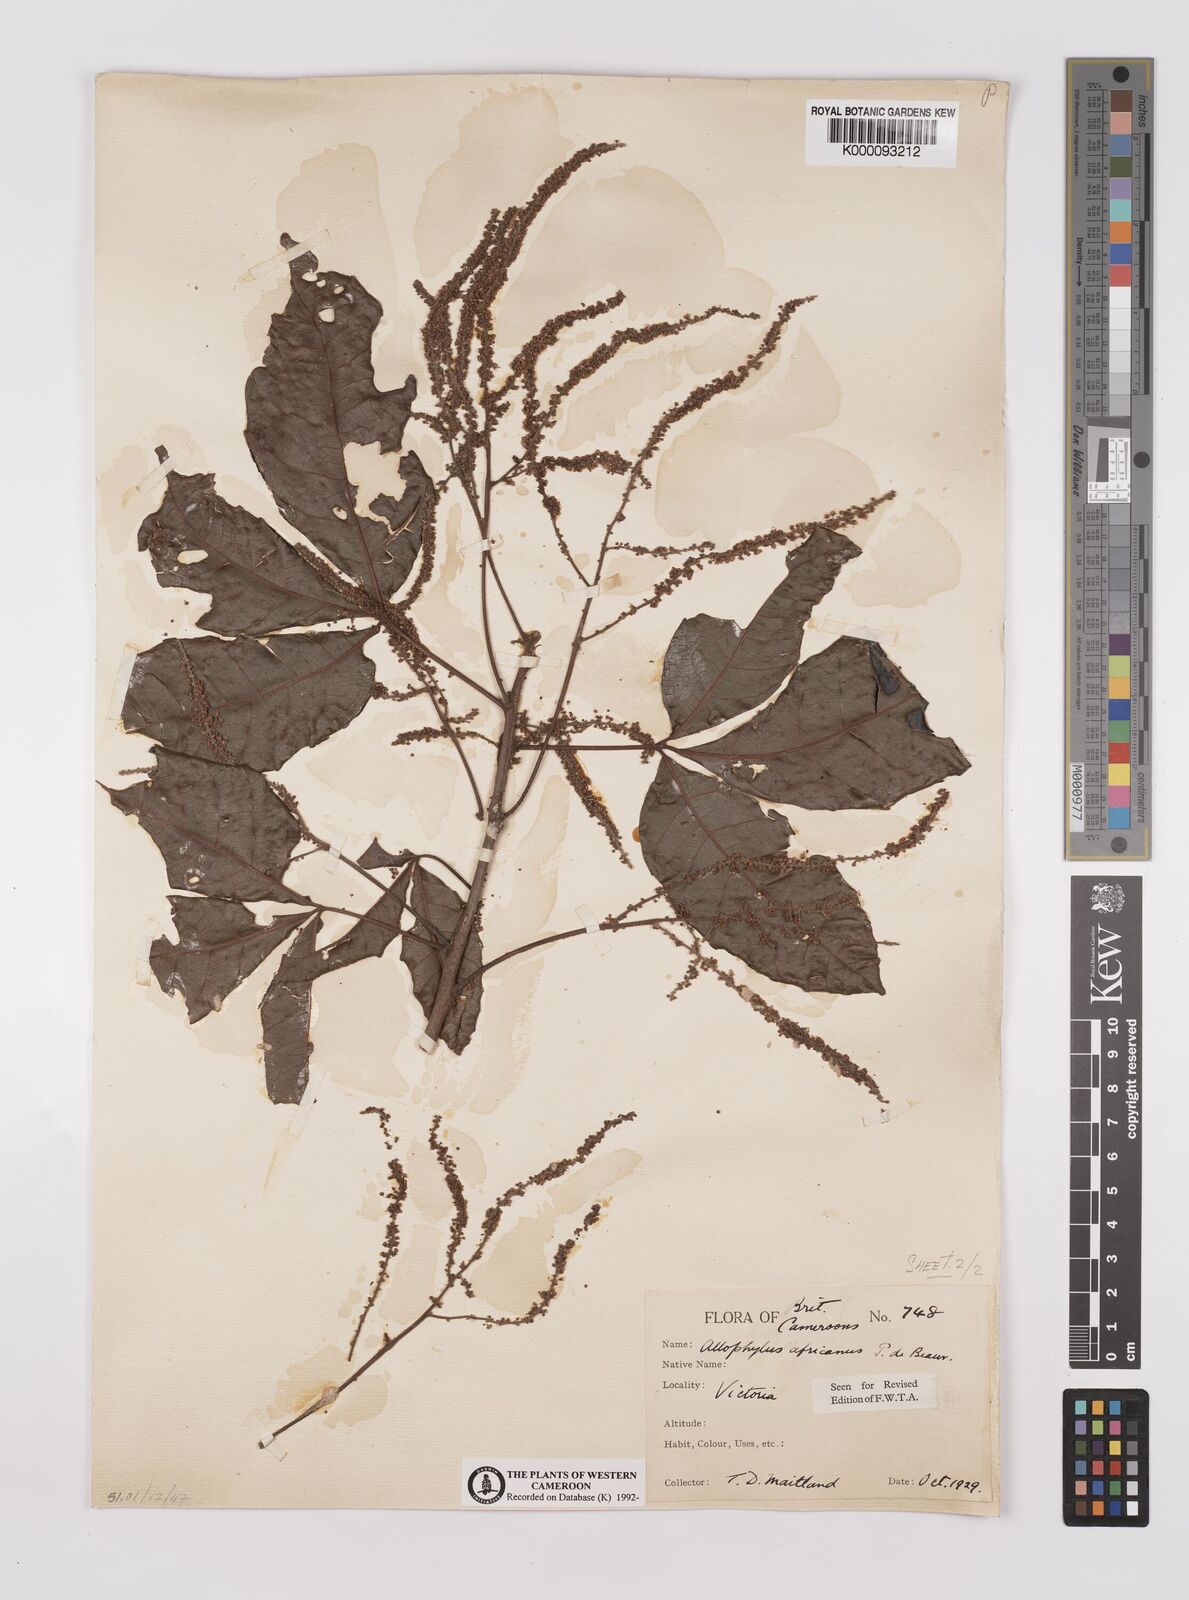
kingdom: Plantae
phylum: Tracheophyta
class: Magnoliopsida
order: Sapindales
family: Sapindaceae
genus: Allophylus
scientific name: Allophylus africanus
